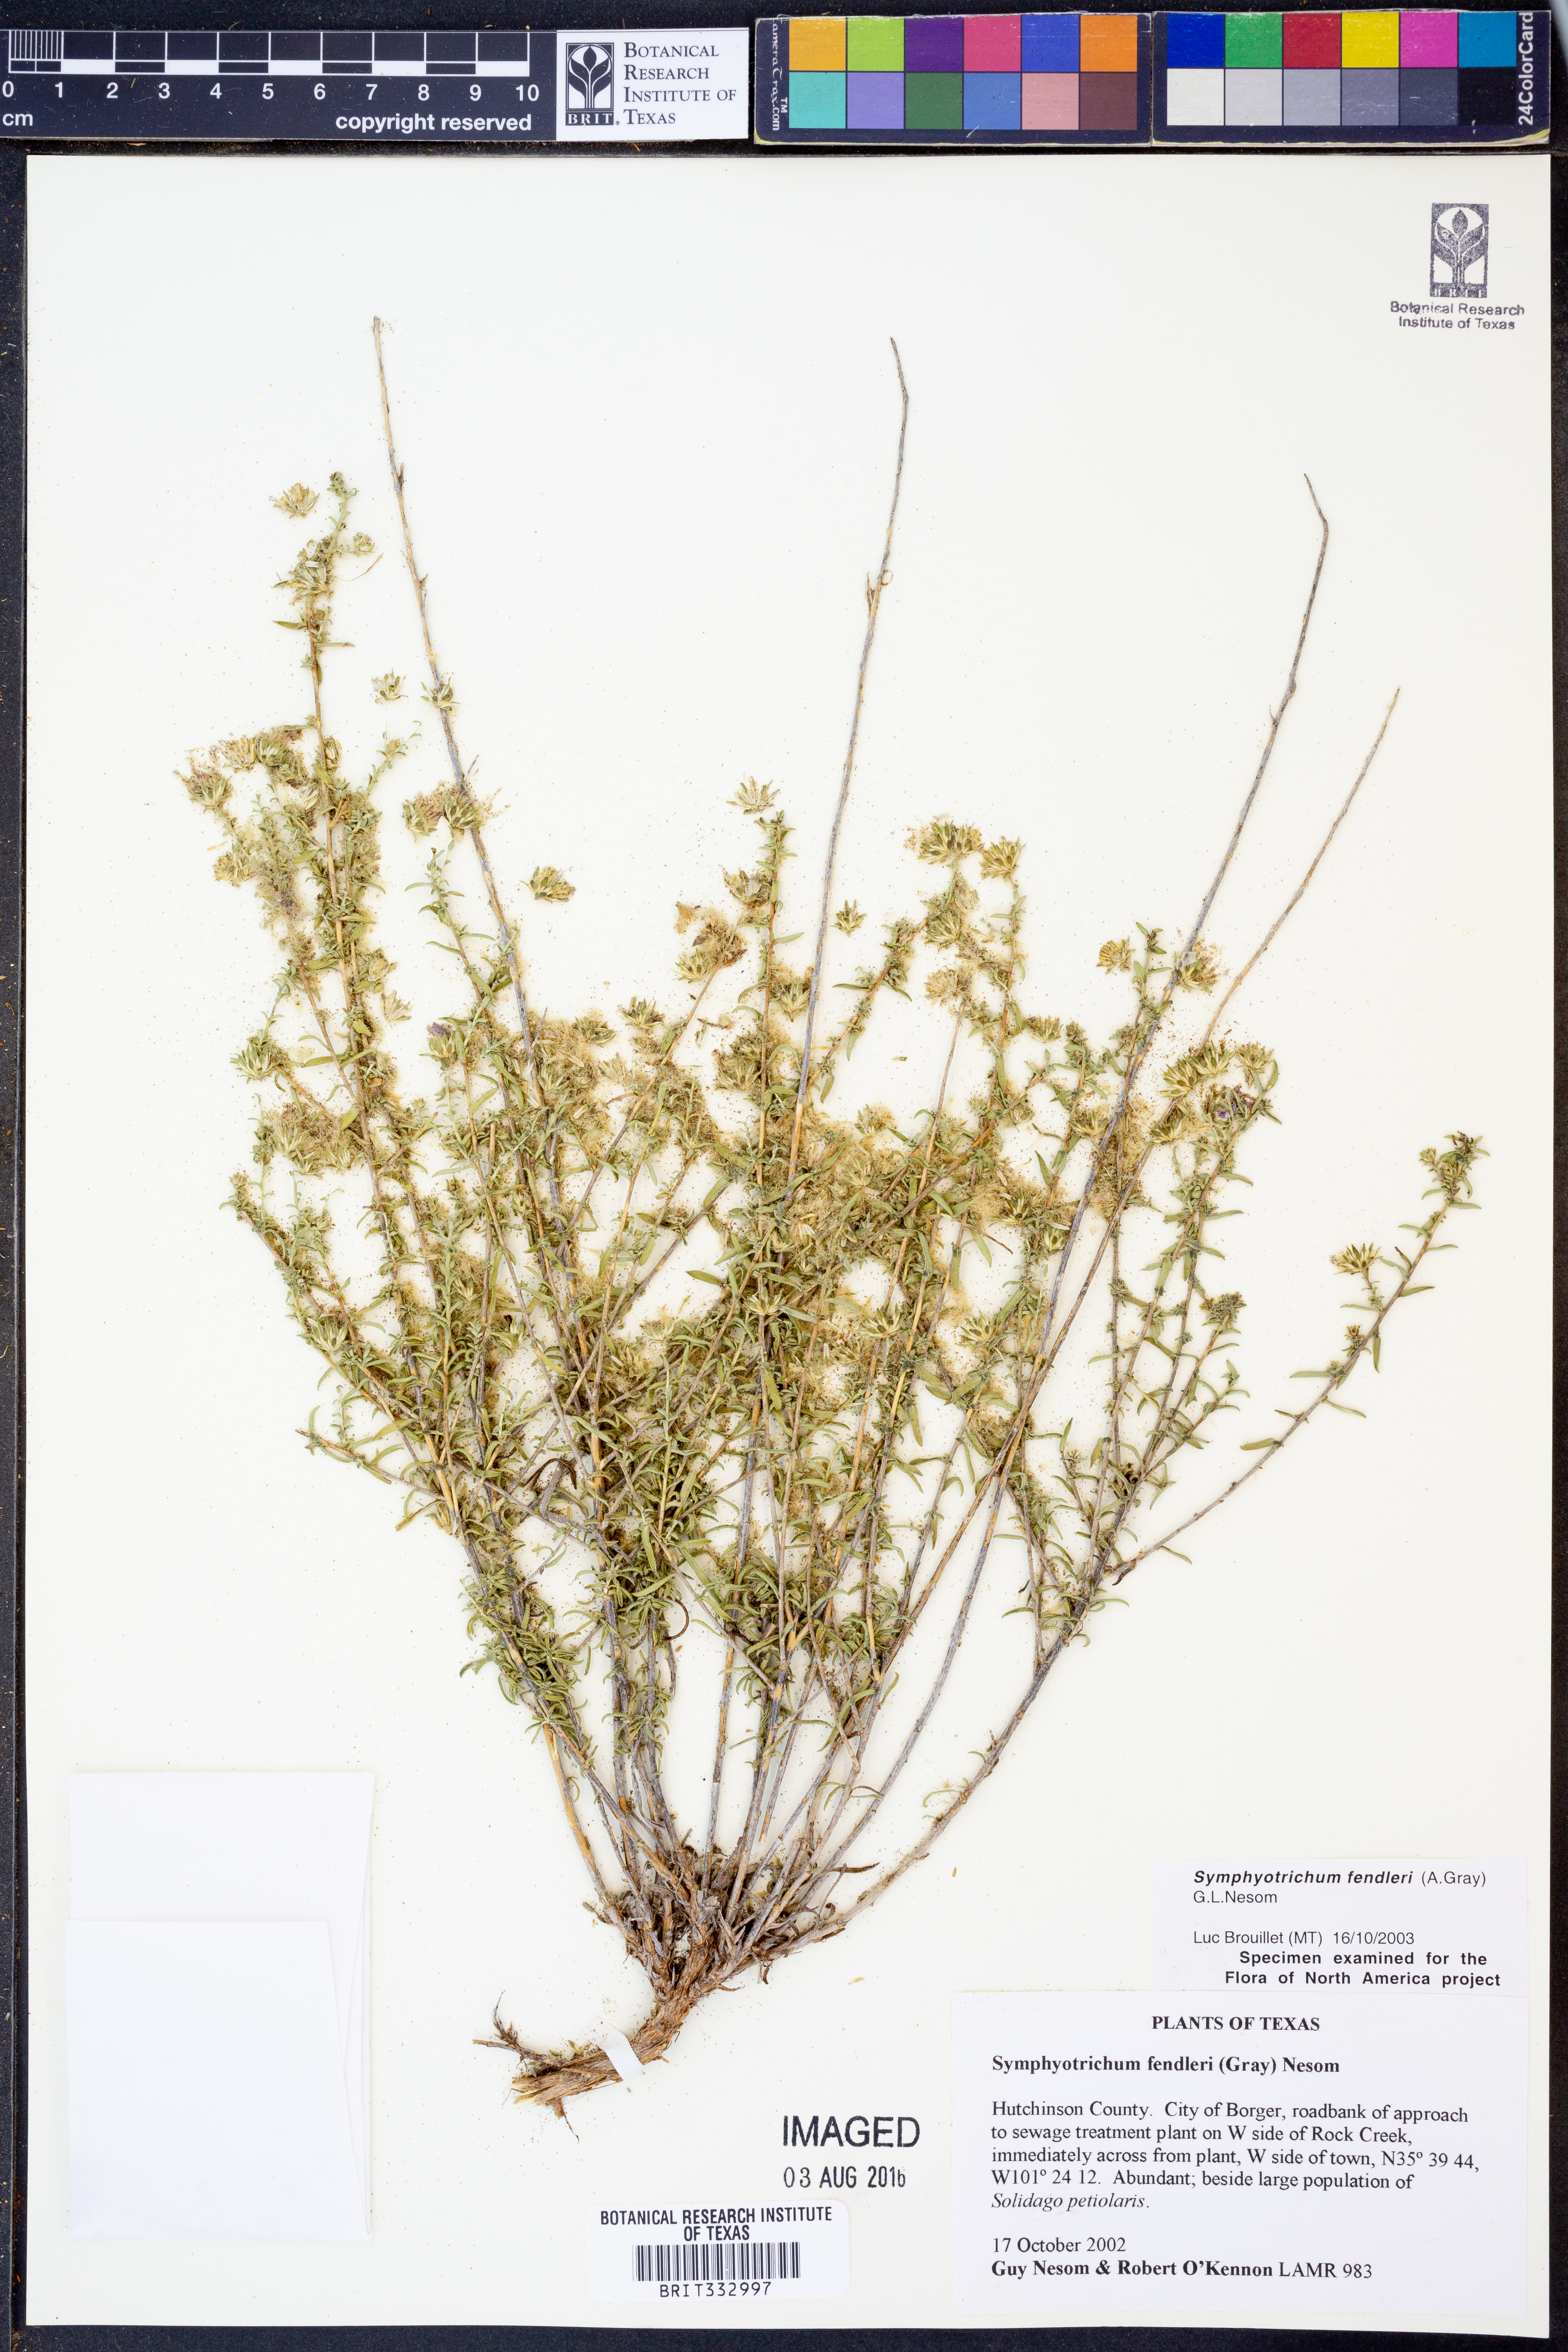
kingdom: Plantae
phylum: Tracheophyta
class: Magnoliopsida
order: Asterales
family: Asteraceae
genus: Symphyotrichum
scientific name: Symphyotrichum fendleri
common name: Fendler's aster
